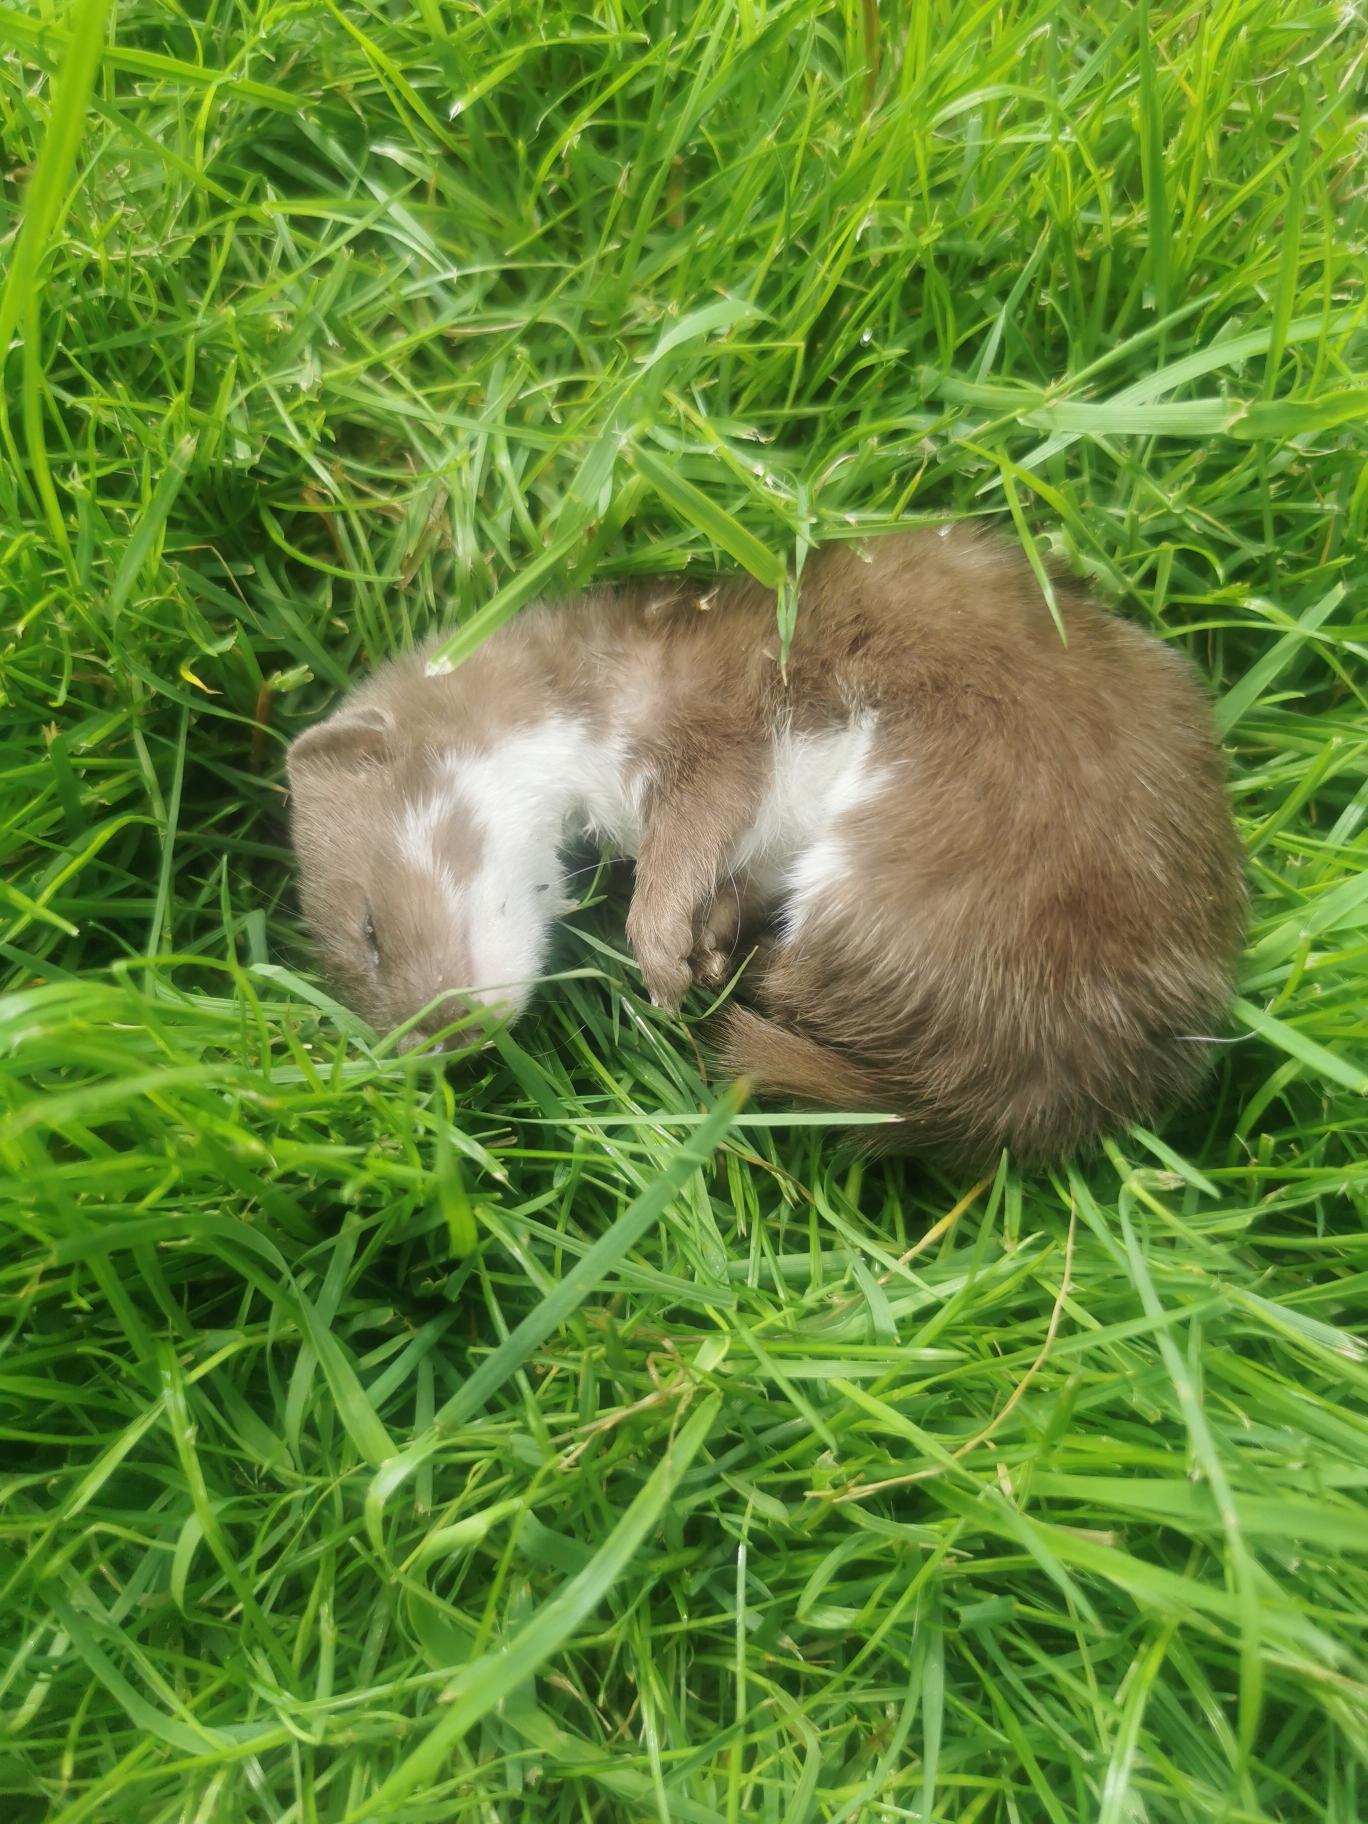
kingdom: Animalia
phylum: Chordata
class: Mammalia
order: Carnivora
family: Mustelidae
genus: Mustela
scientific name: Mustela nivalis
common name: Brud
